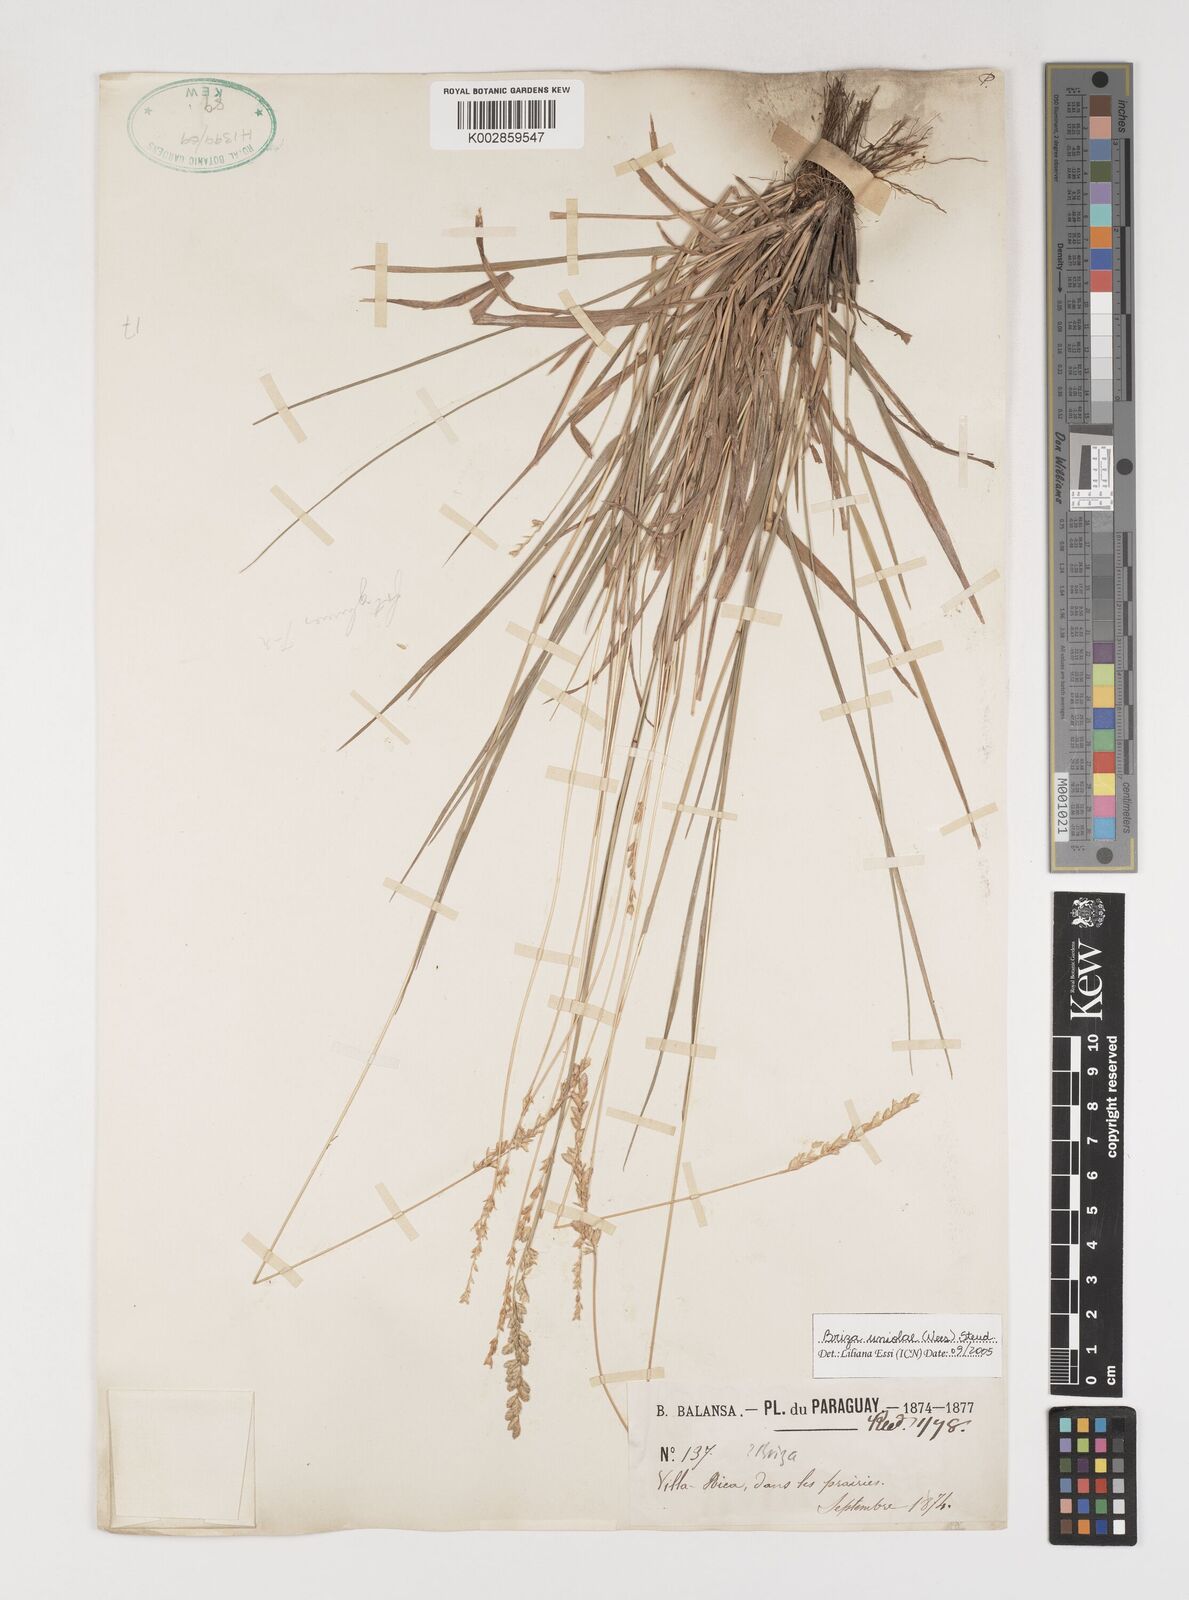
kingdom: Plantae
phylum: Tracheophyta
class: Liliopsida
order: Poales
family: Poaceae
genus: Poidium
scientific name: Poidium uniolae
